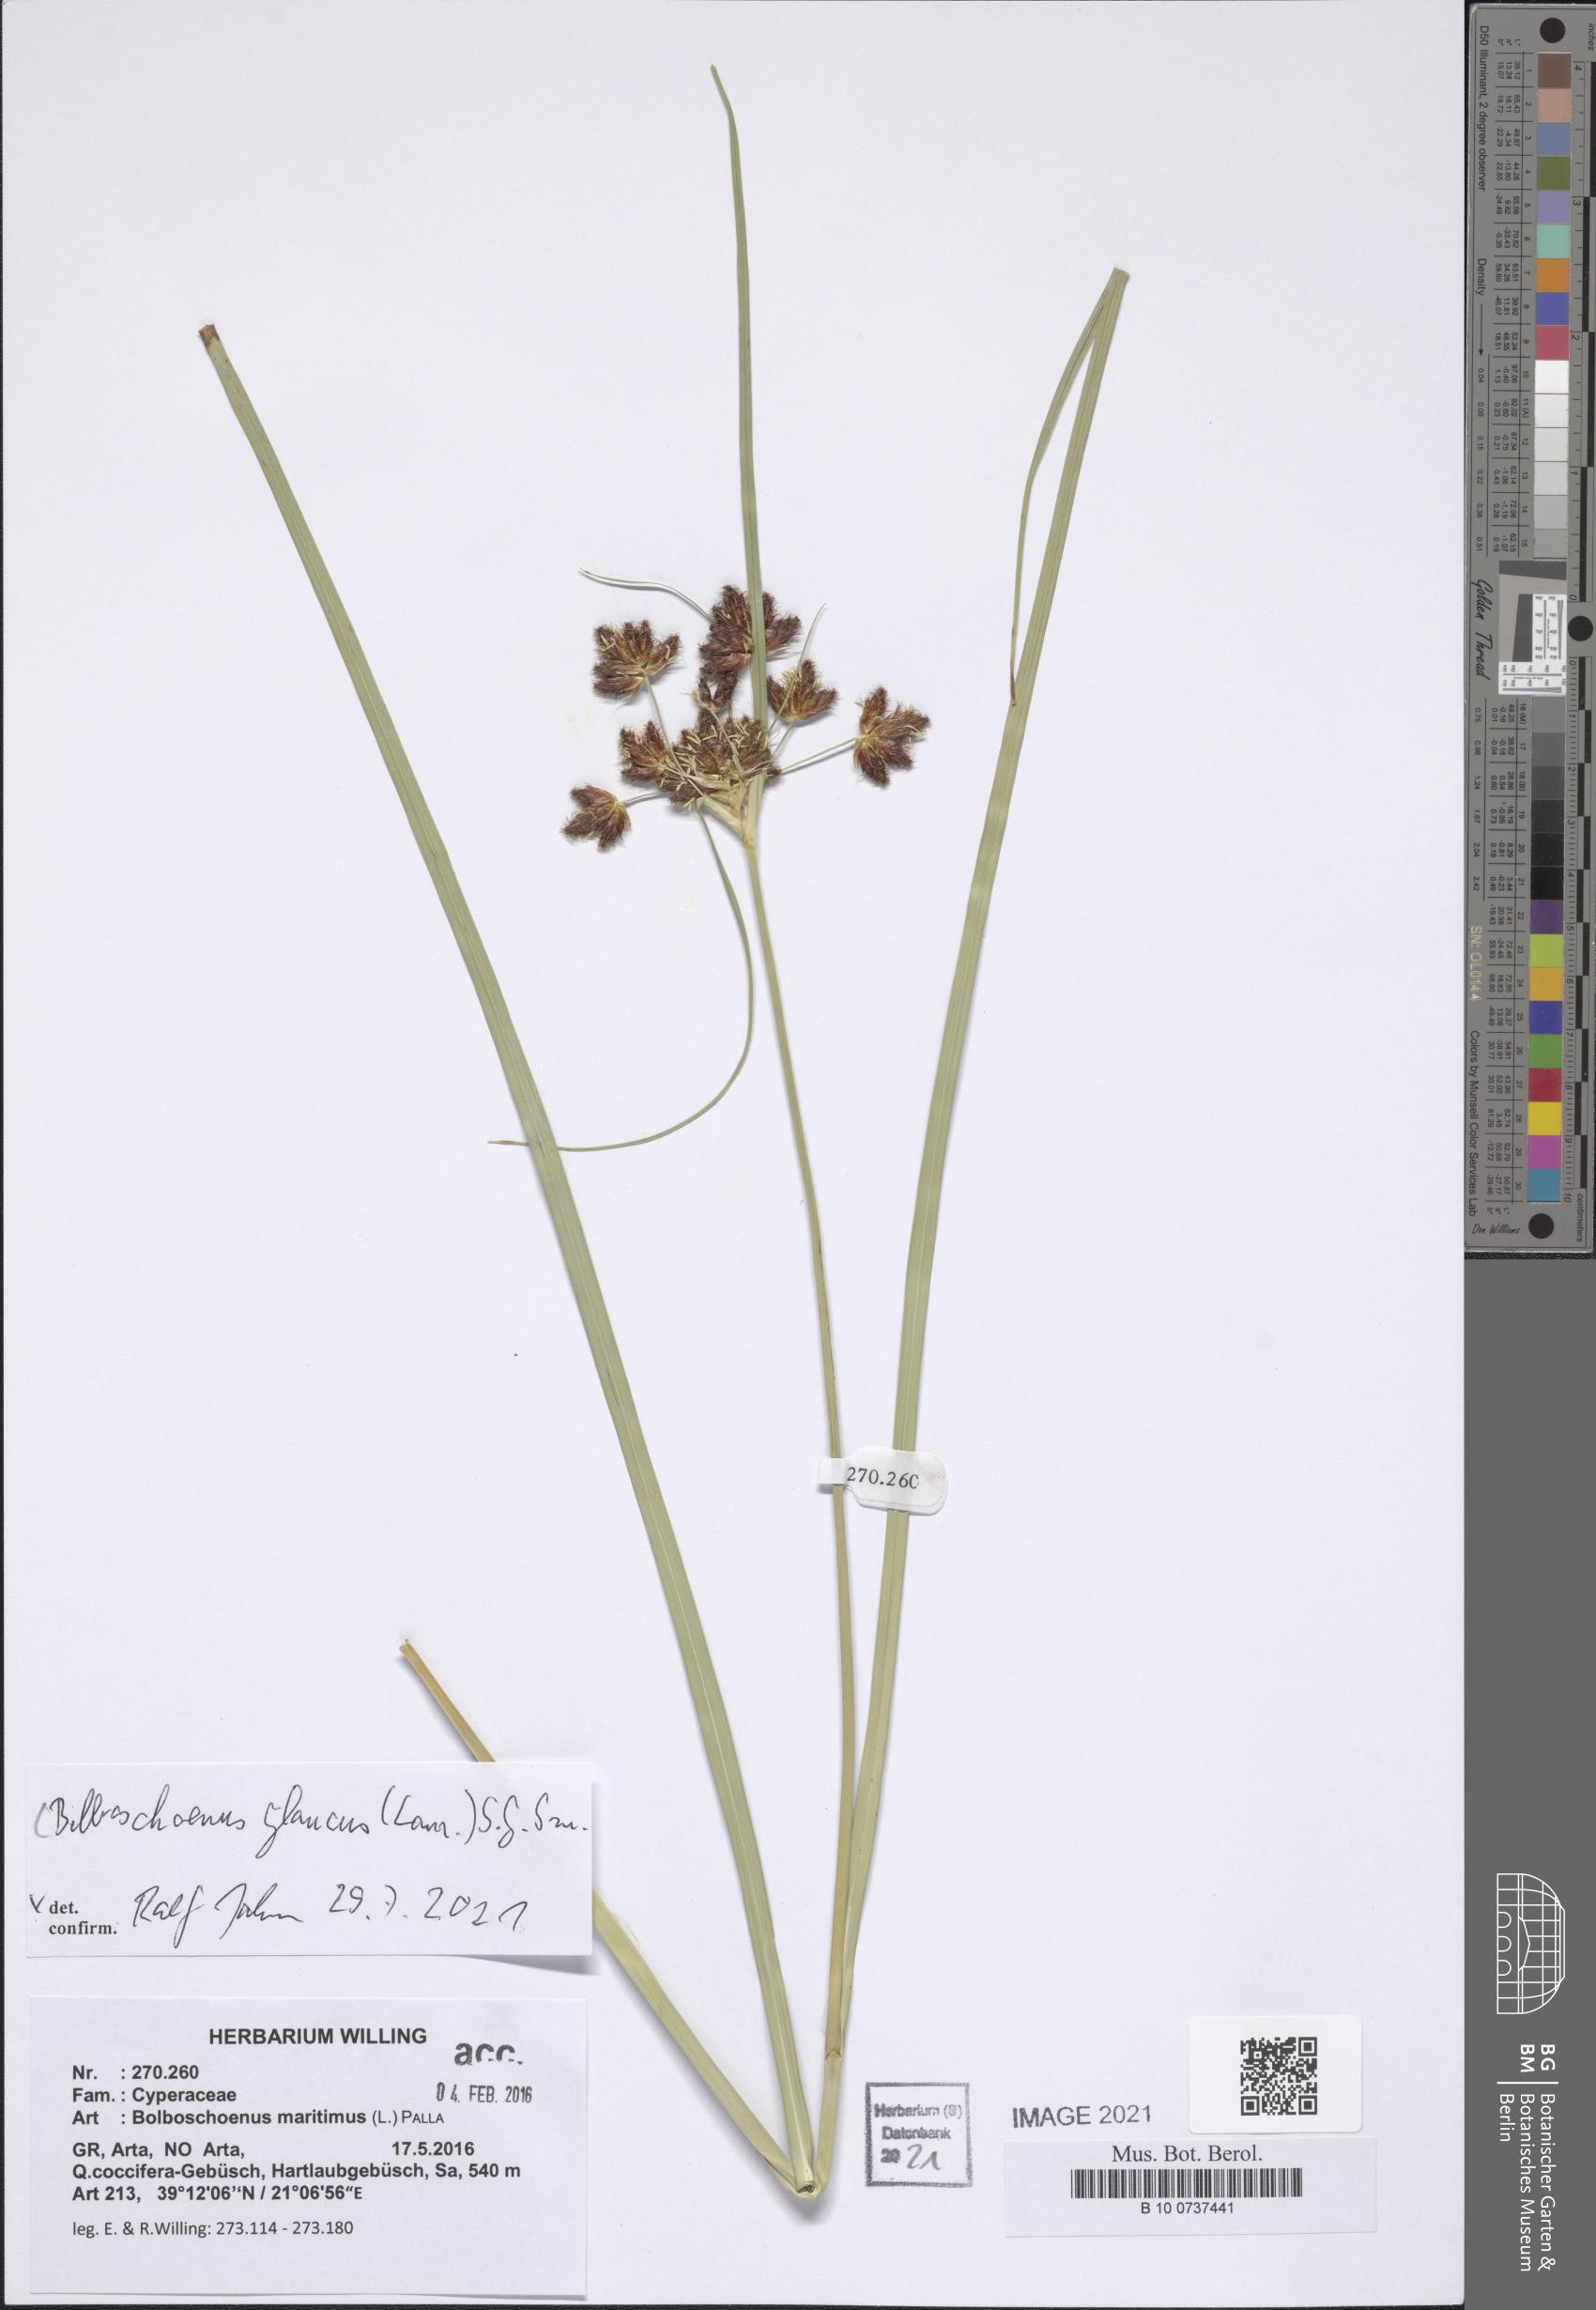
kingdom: Plantae
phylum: Tracheophyta
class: Liliopsida
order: Poales
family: Cyperaceae
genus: Bolboschoenus
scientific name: Bolboschoenus glaucus
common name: Tuberous bulrush
